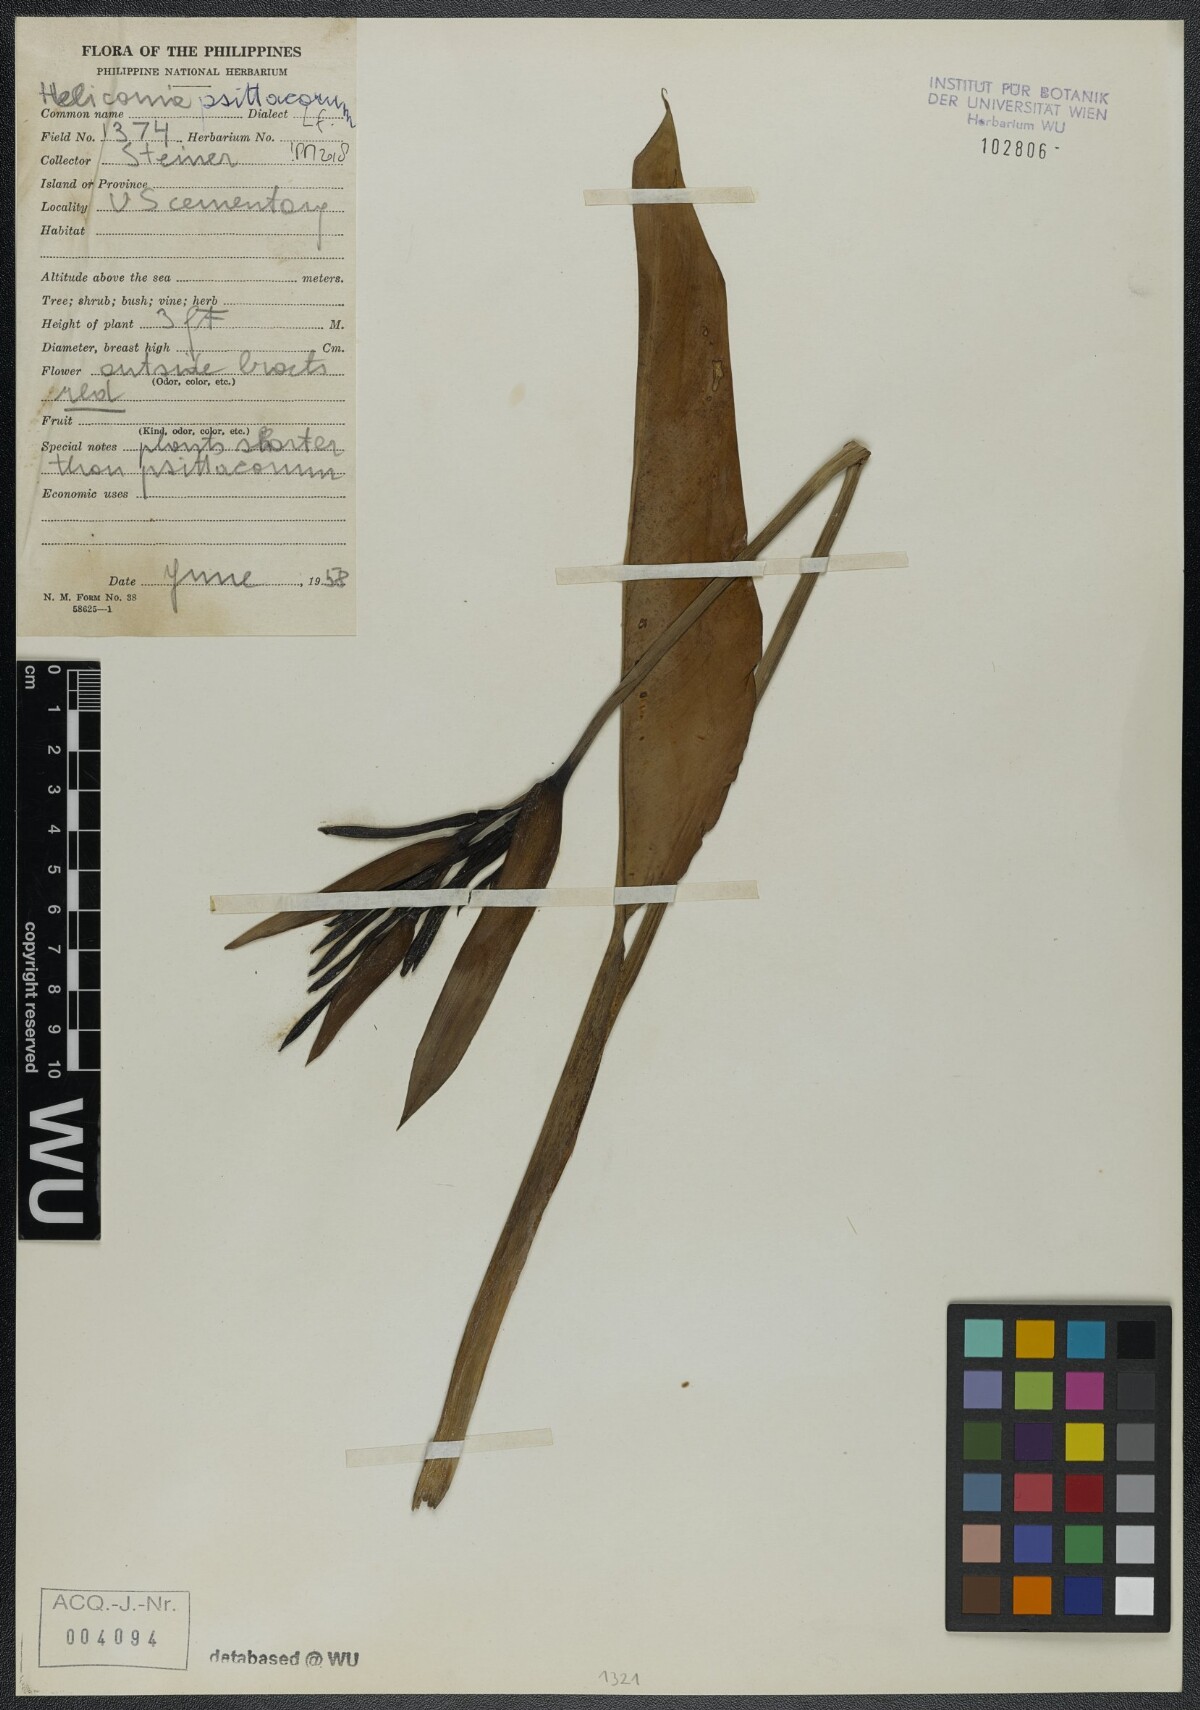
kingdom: Plantae
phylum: Tracheophyta
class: Liliopsida
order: Zingiberales
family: Heliconiaceae
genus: Heliconia
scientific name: Heliconia psittacorum
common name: Parrot's-flower
